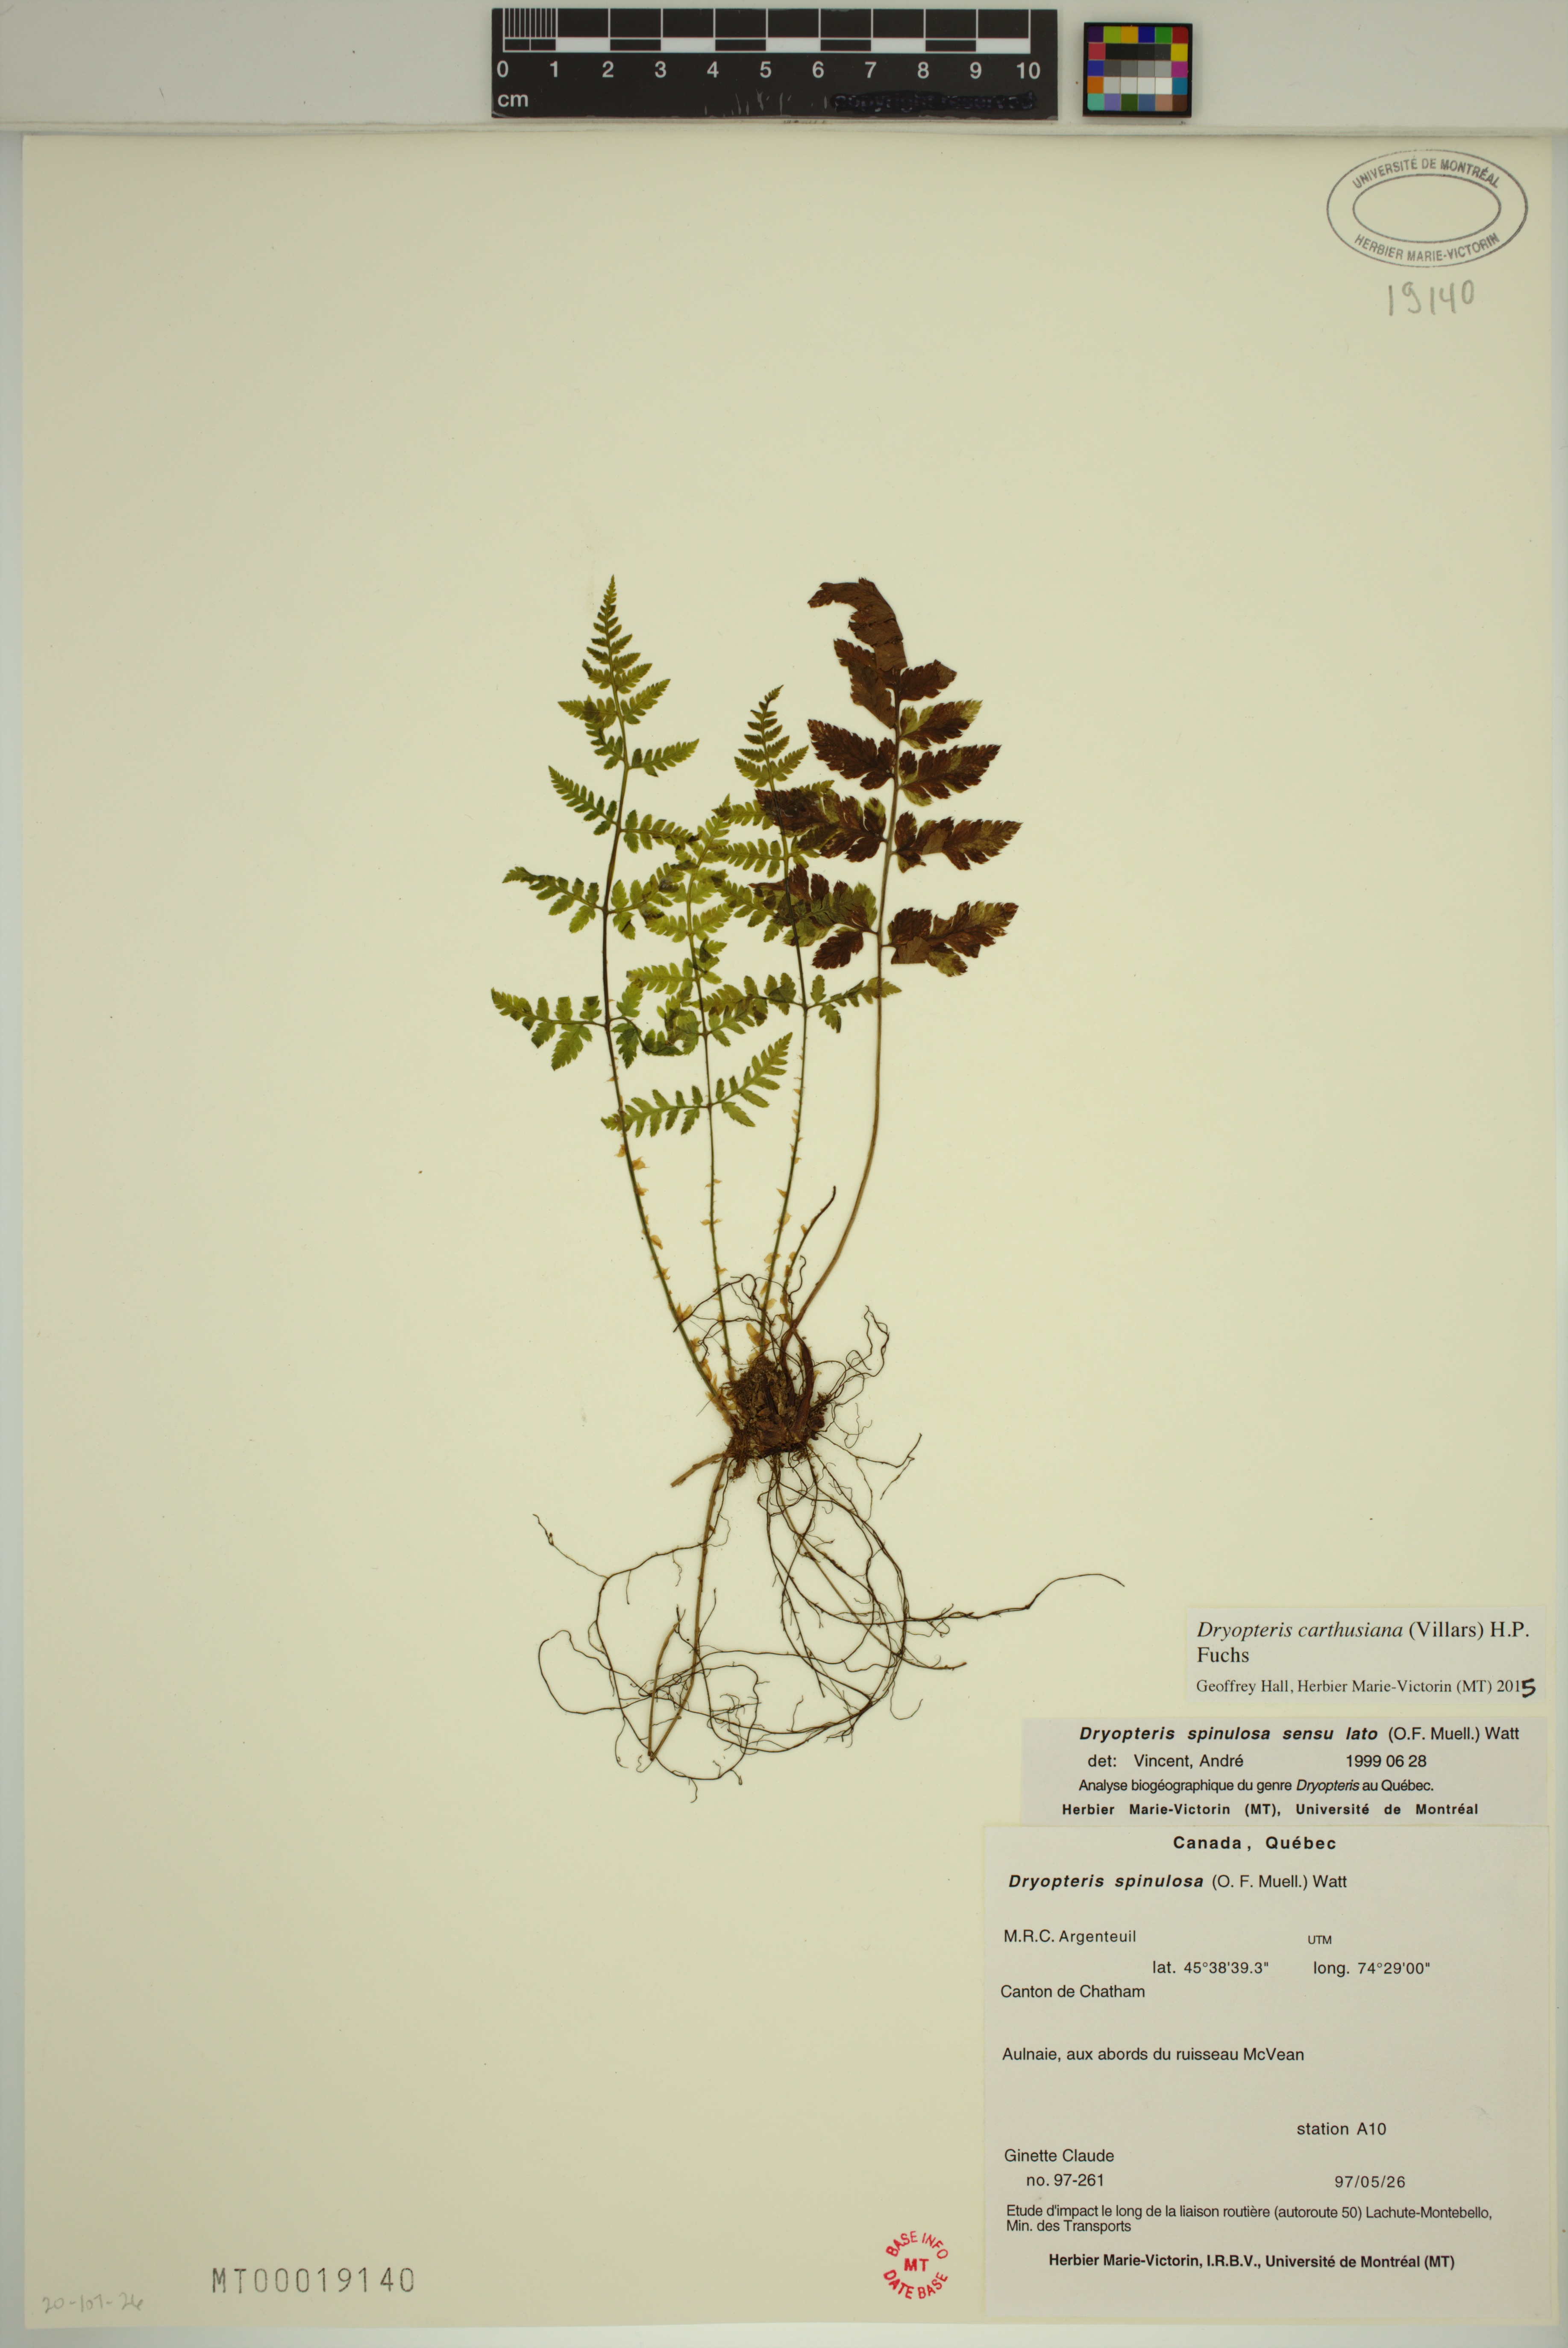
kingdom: Plantae
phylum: Tracheophyta
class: Polypodiopsida
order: Polypodiales
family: Dryopteridaceae
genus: Dryopteris
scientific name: Dryopteris carthusiana
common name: Narrow buckler-fern
